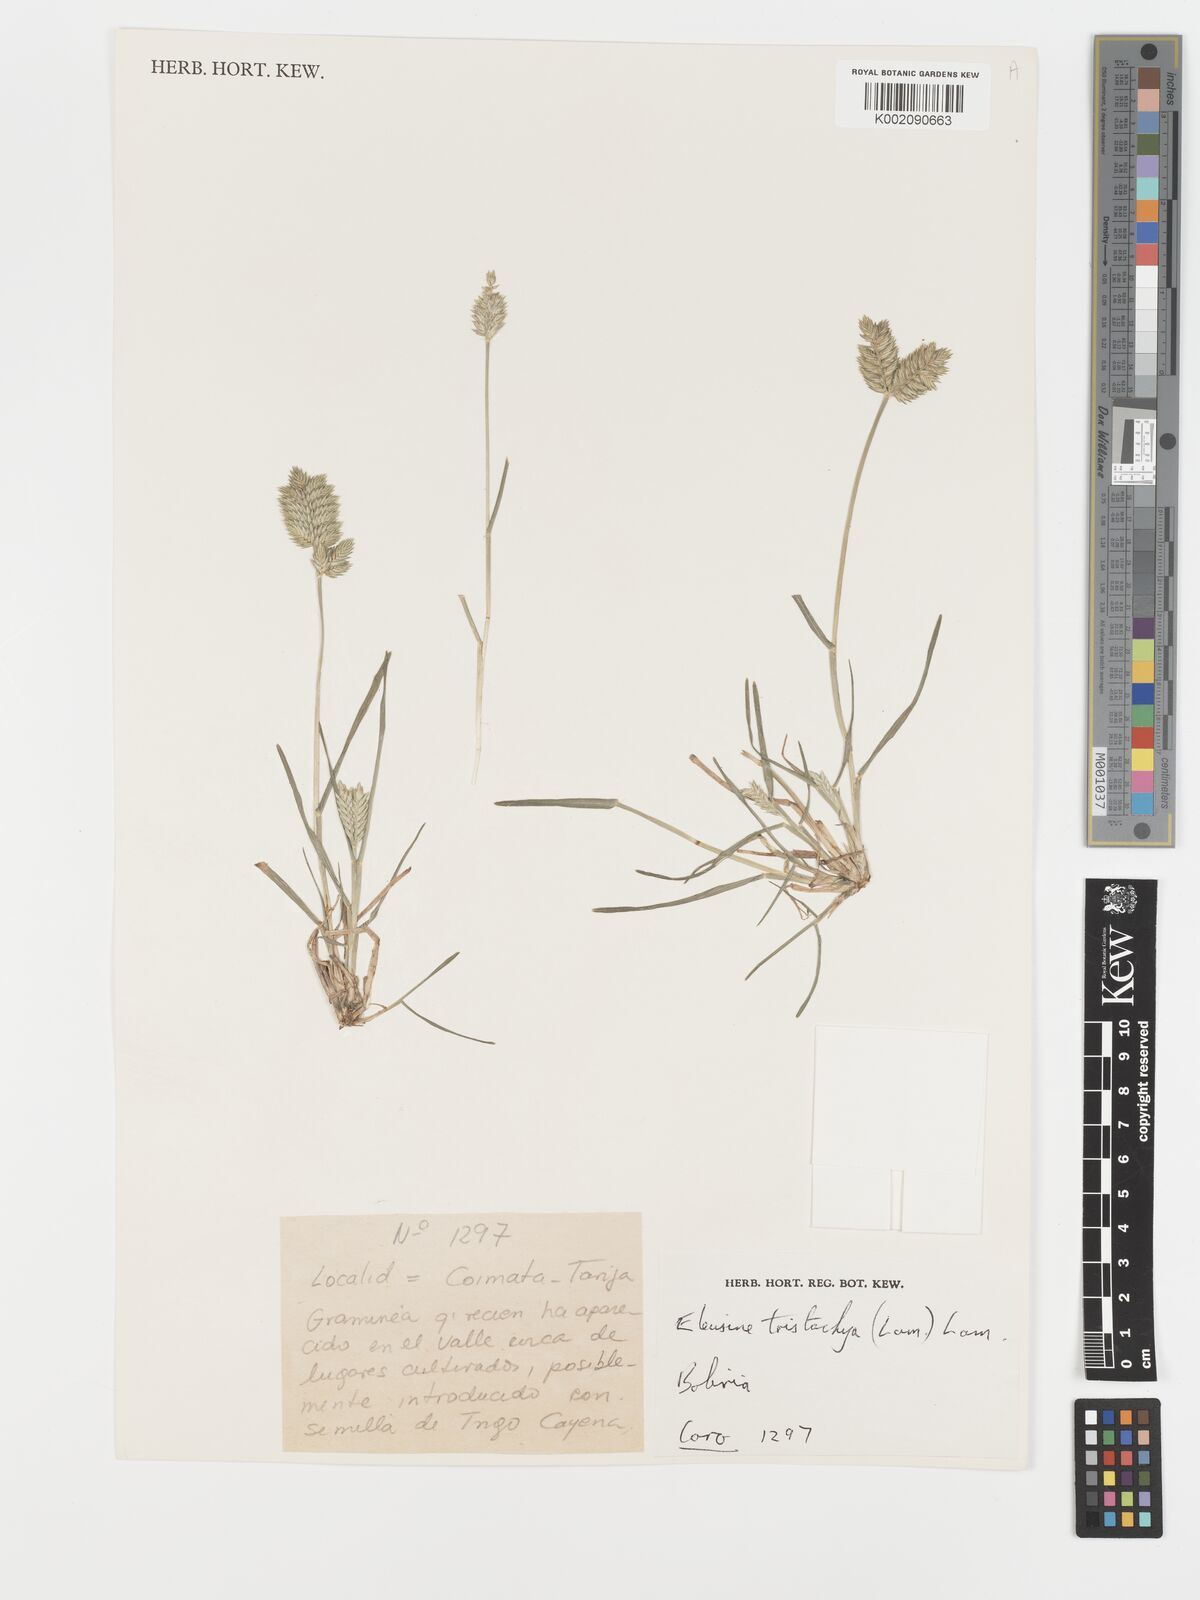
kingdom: Plantae
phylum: Tracheophyta
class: Liliopsida
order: Poales
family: Poaceae
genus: Eleusine
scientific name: Eleusine tristachya
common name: American yard-grass
